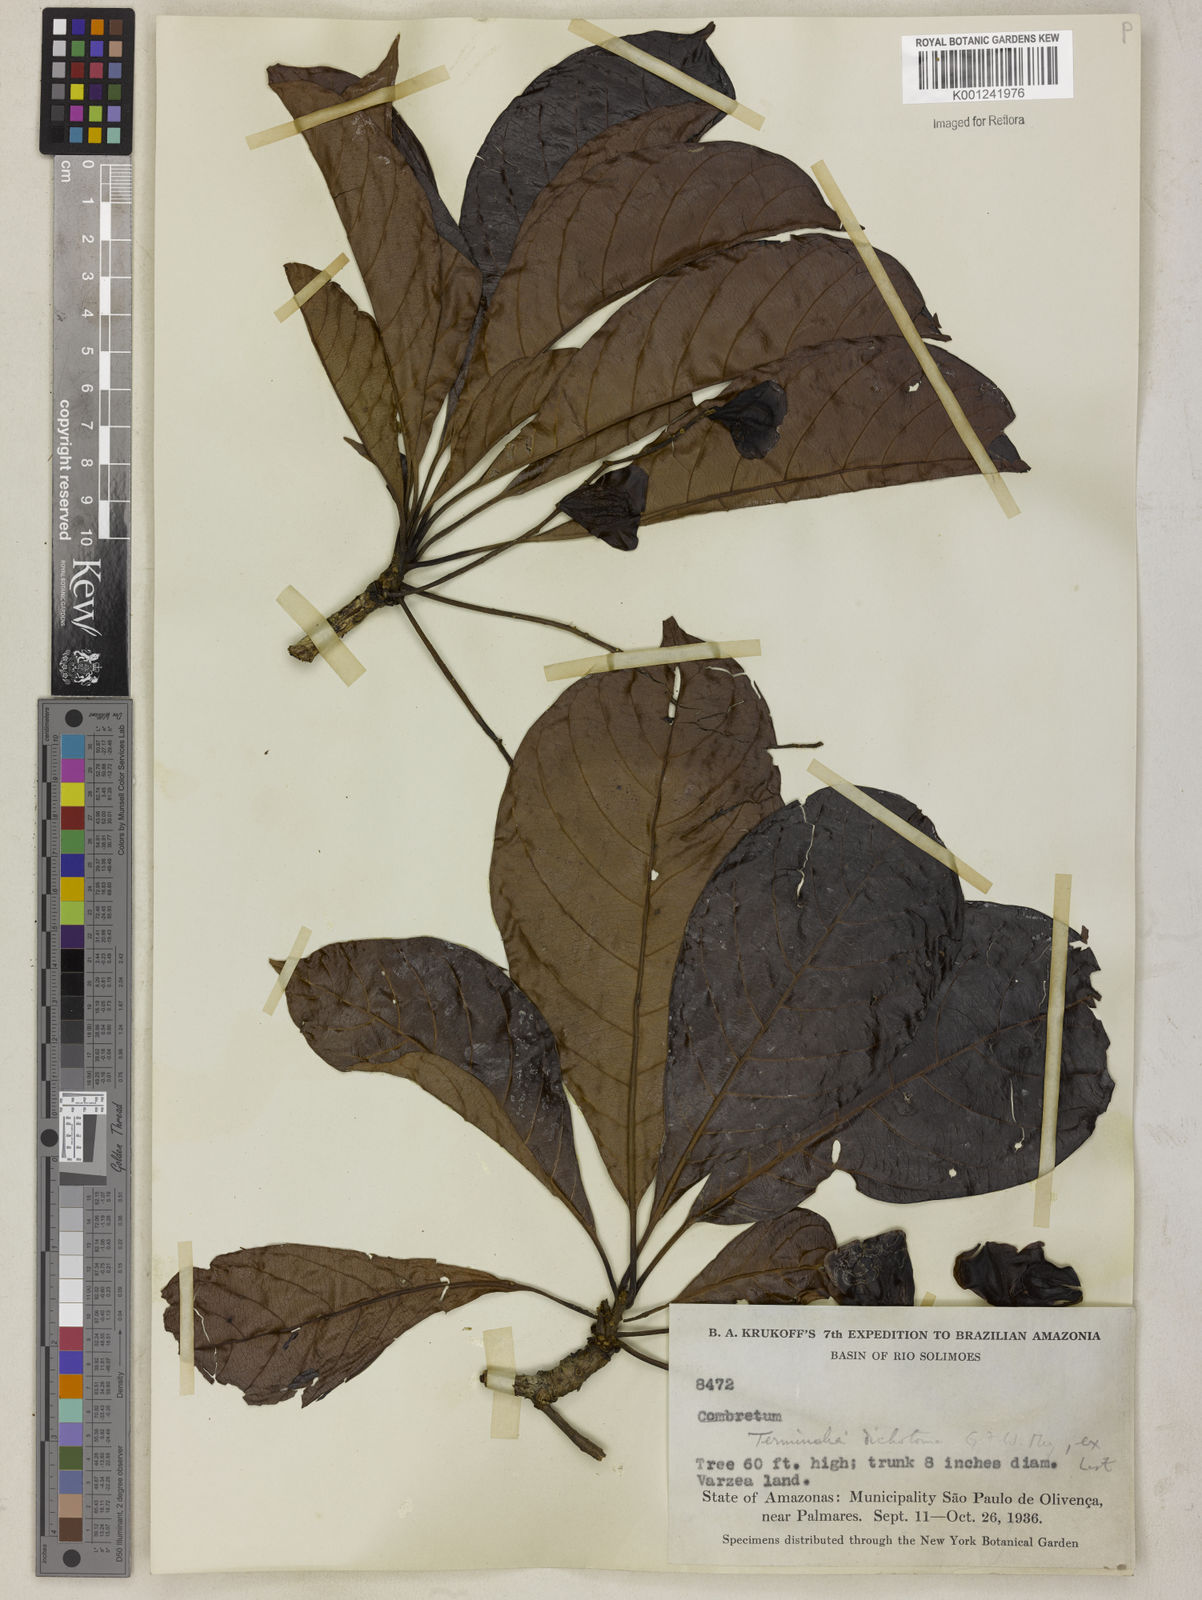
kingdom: Plantae
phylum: Tracheophyta
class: Magnoliopsida
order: Myrtales
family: Combretaceae
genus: Terminalia
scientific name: Terminalia dichotoma
